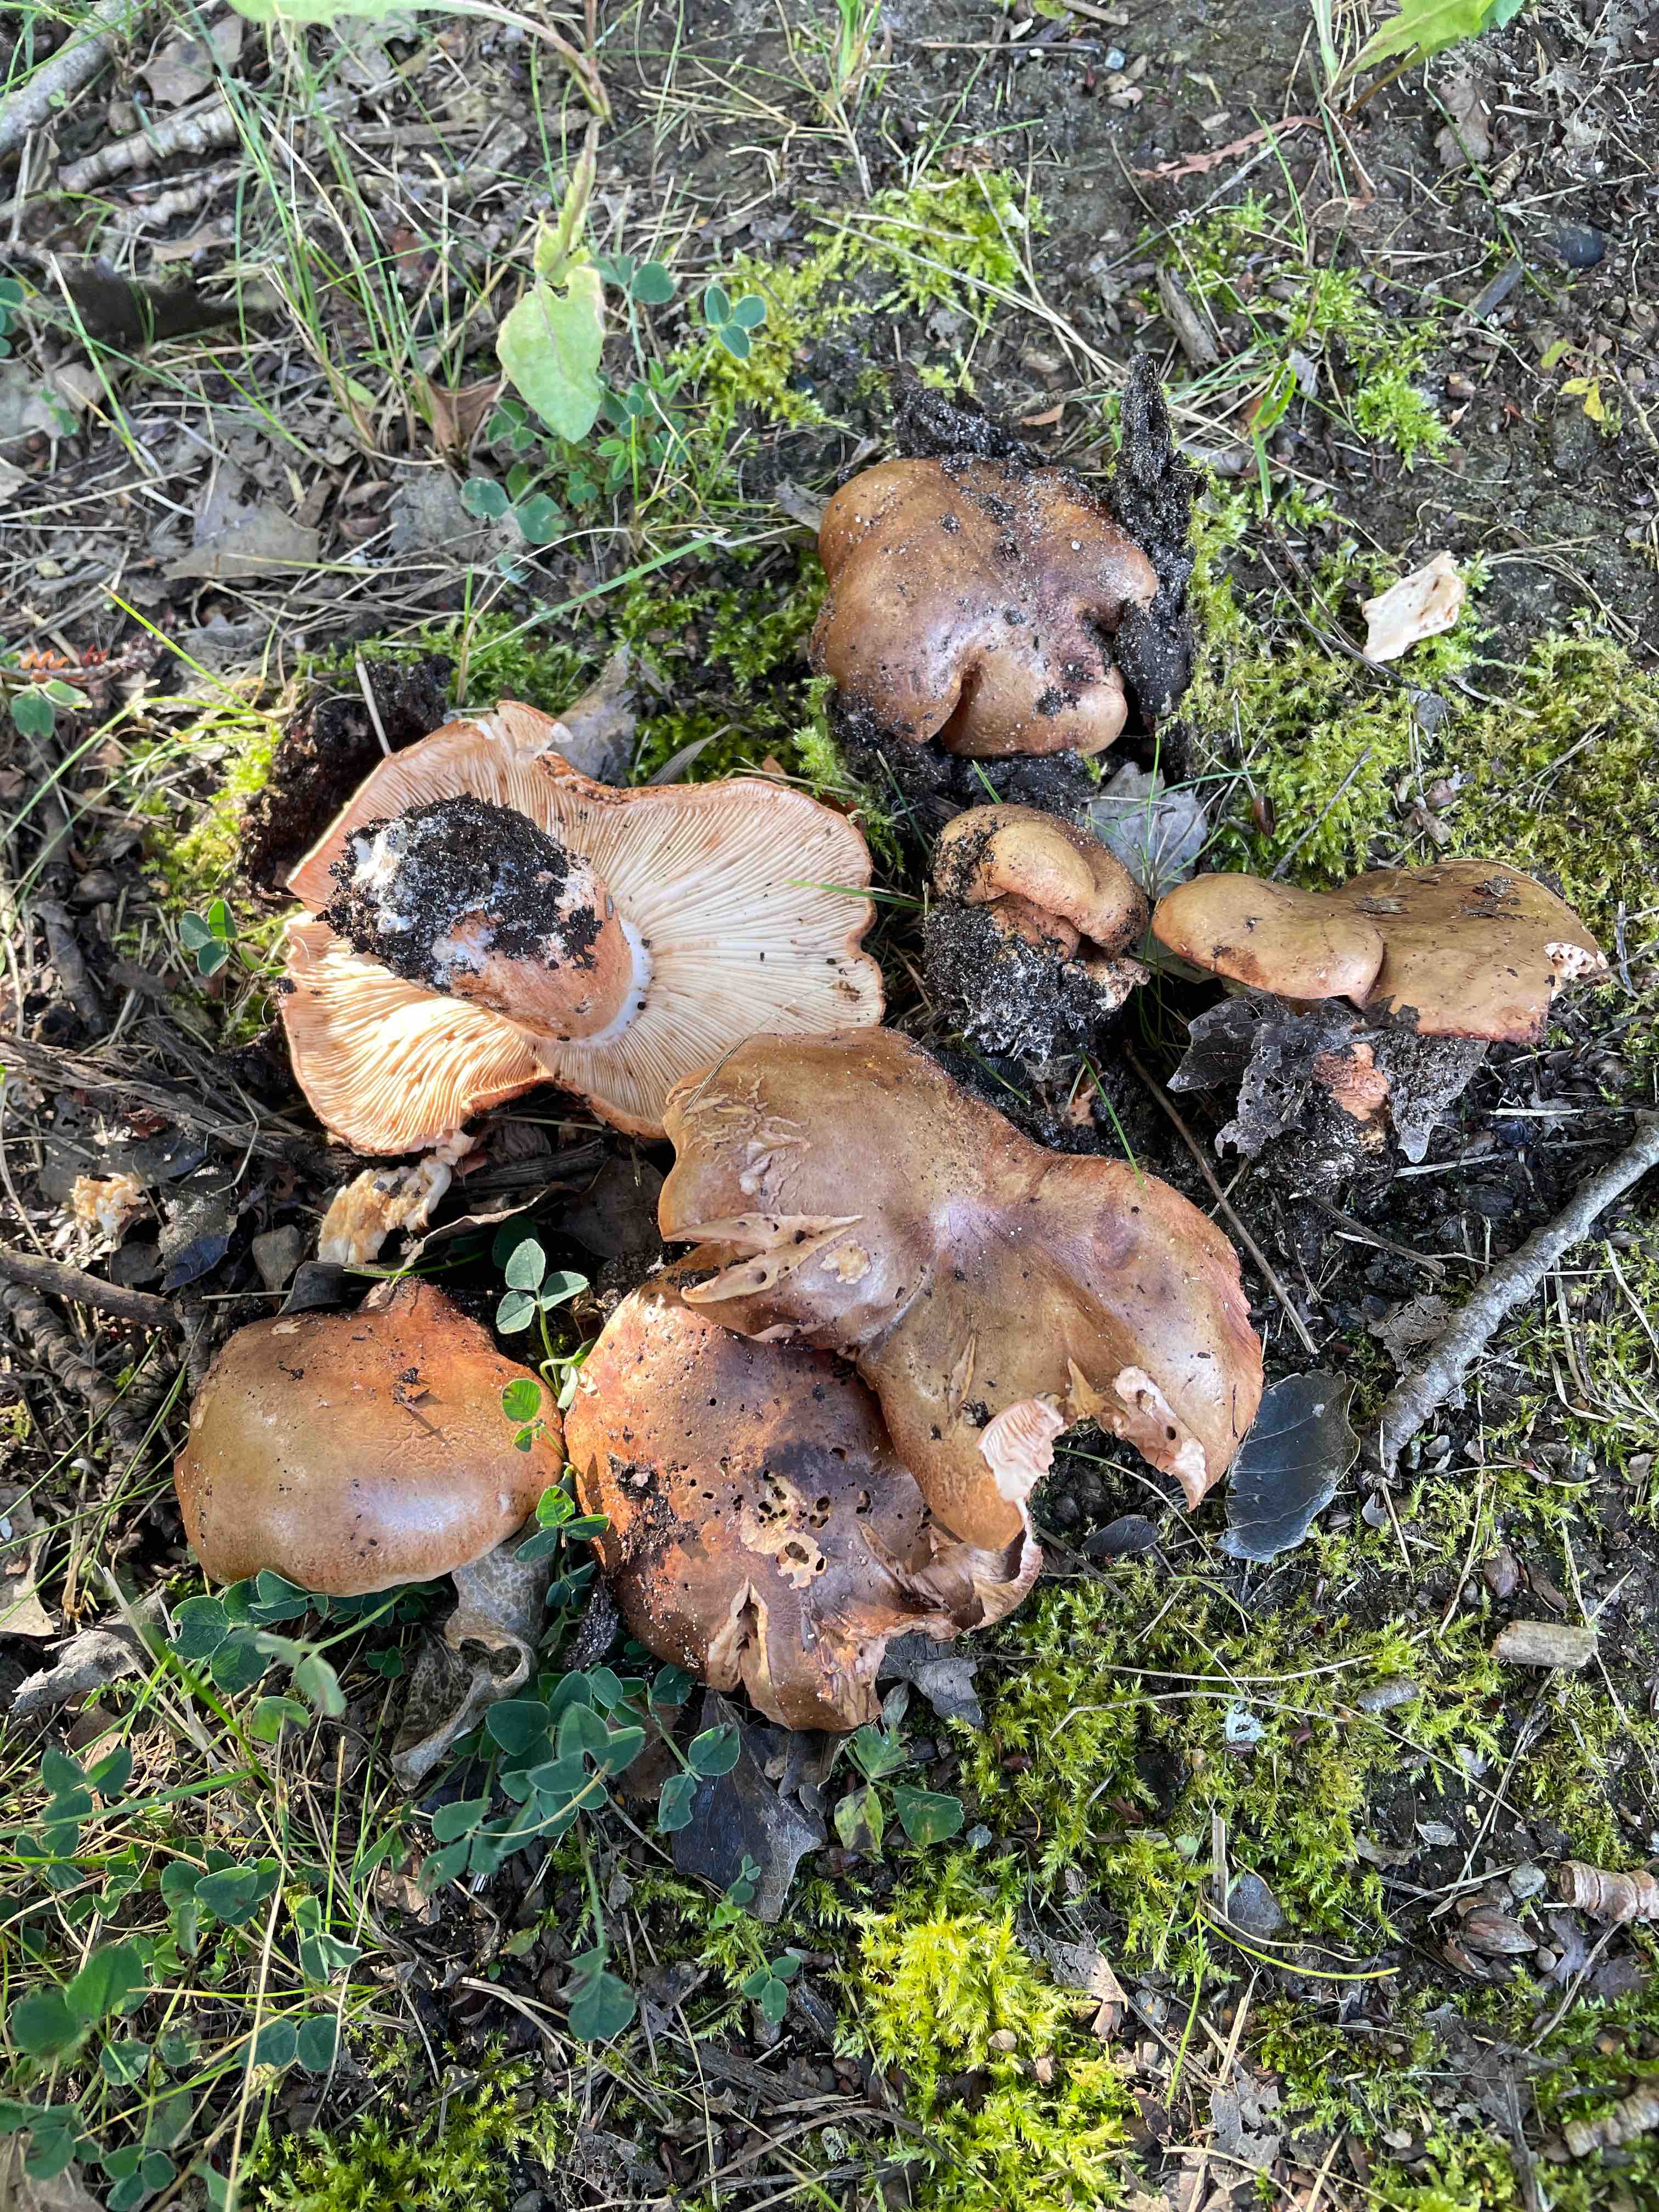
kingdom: Fungi
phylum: Basidiomycota
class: Agaricomycetes
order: Agaricales
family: Tricholomataceae
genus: Tricholoma
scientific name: Tricholoma populinum
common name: poppel-ridderhat
